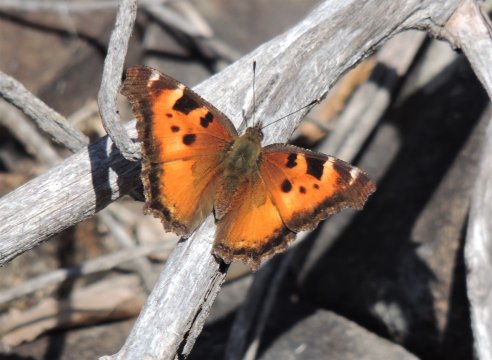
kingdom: Animalia
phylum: Arthropoda
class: Insecta
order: Lepidoptera
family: Nymphalidae
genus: Nymphalis
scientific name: Nymphalis californica
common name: California Tortoiseshell
